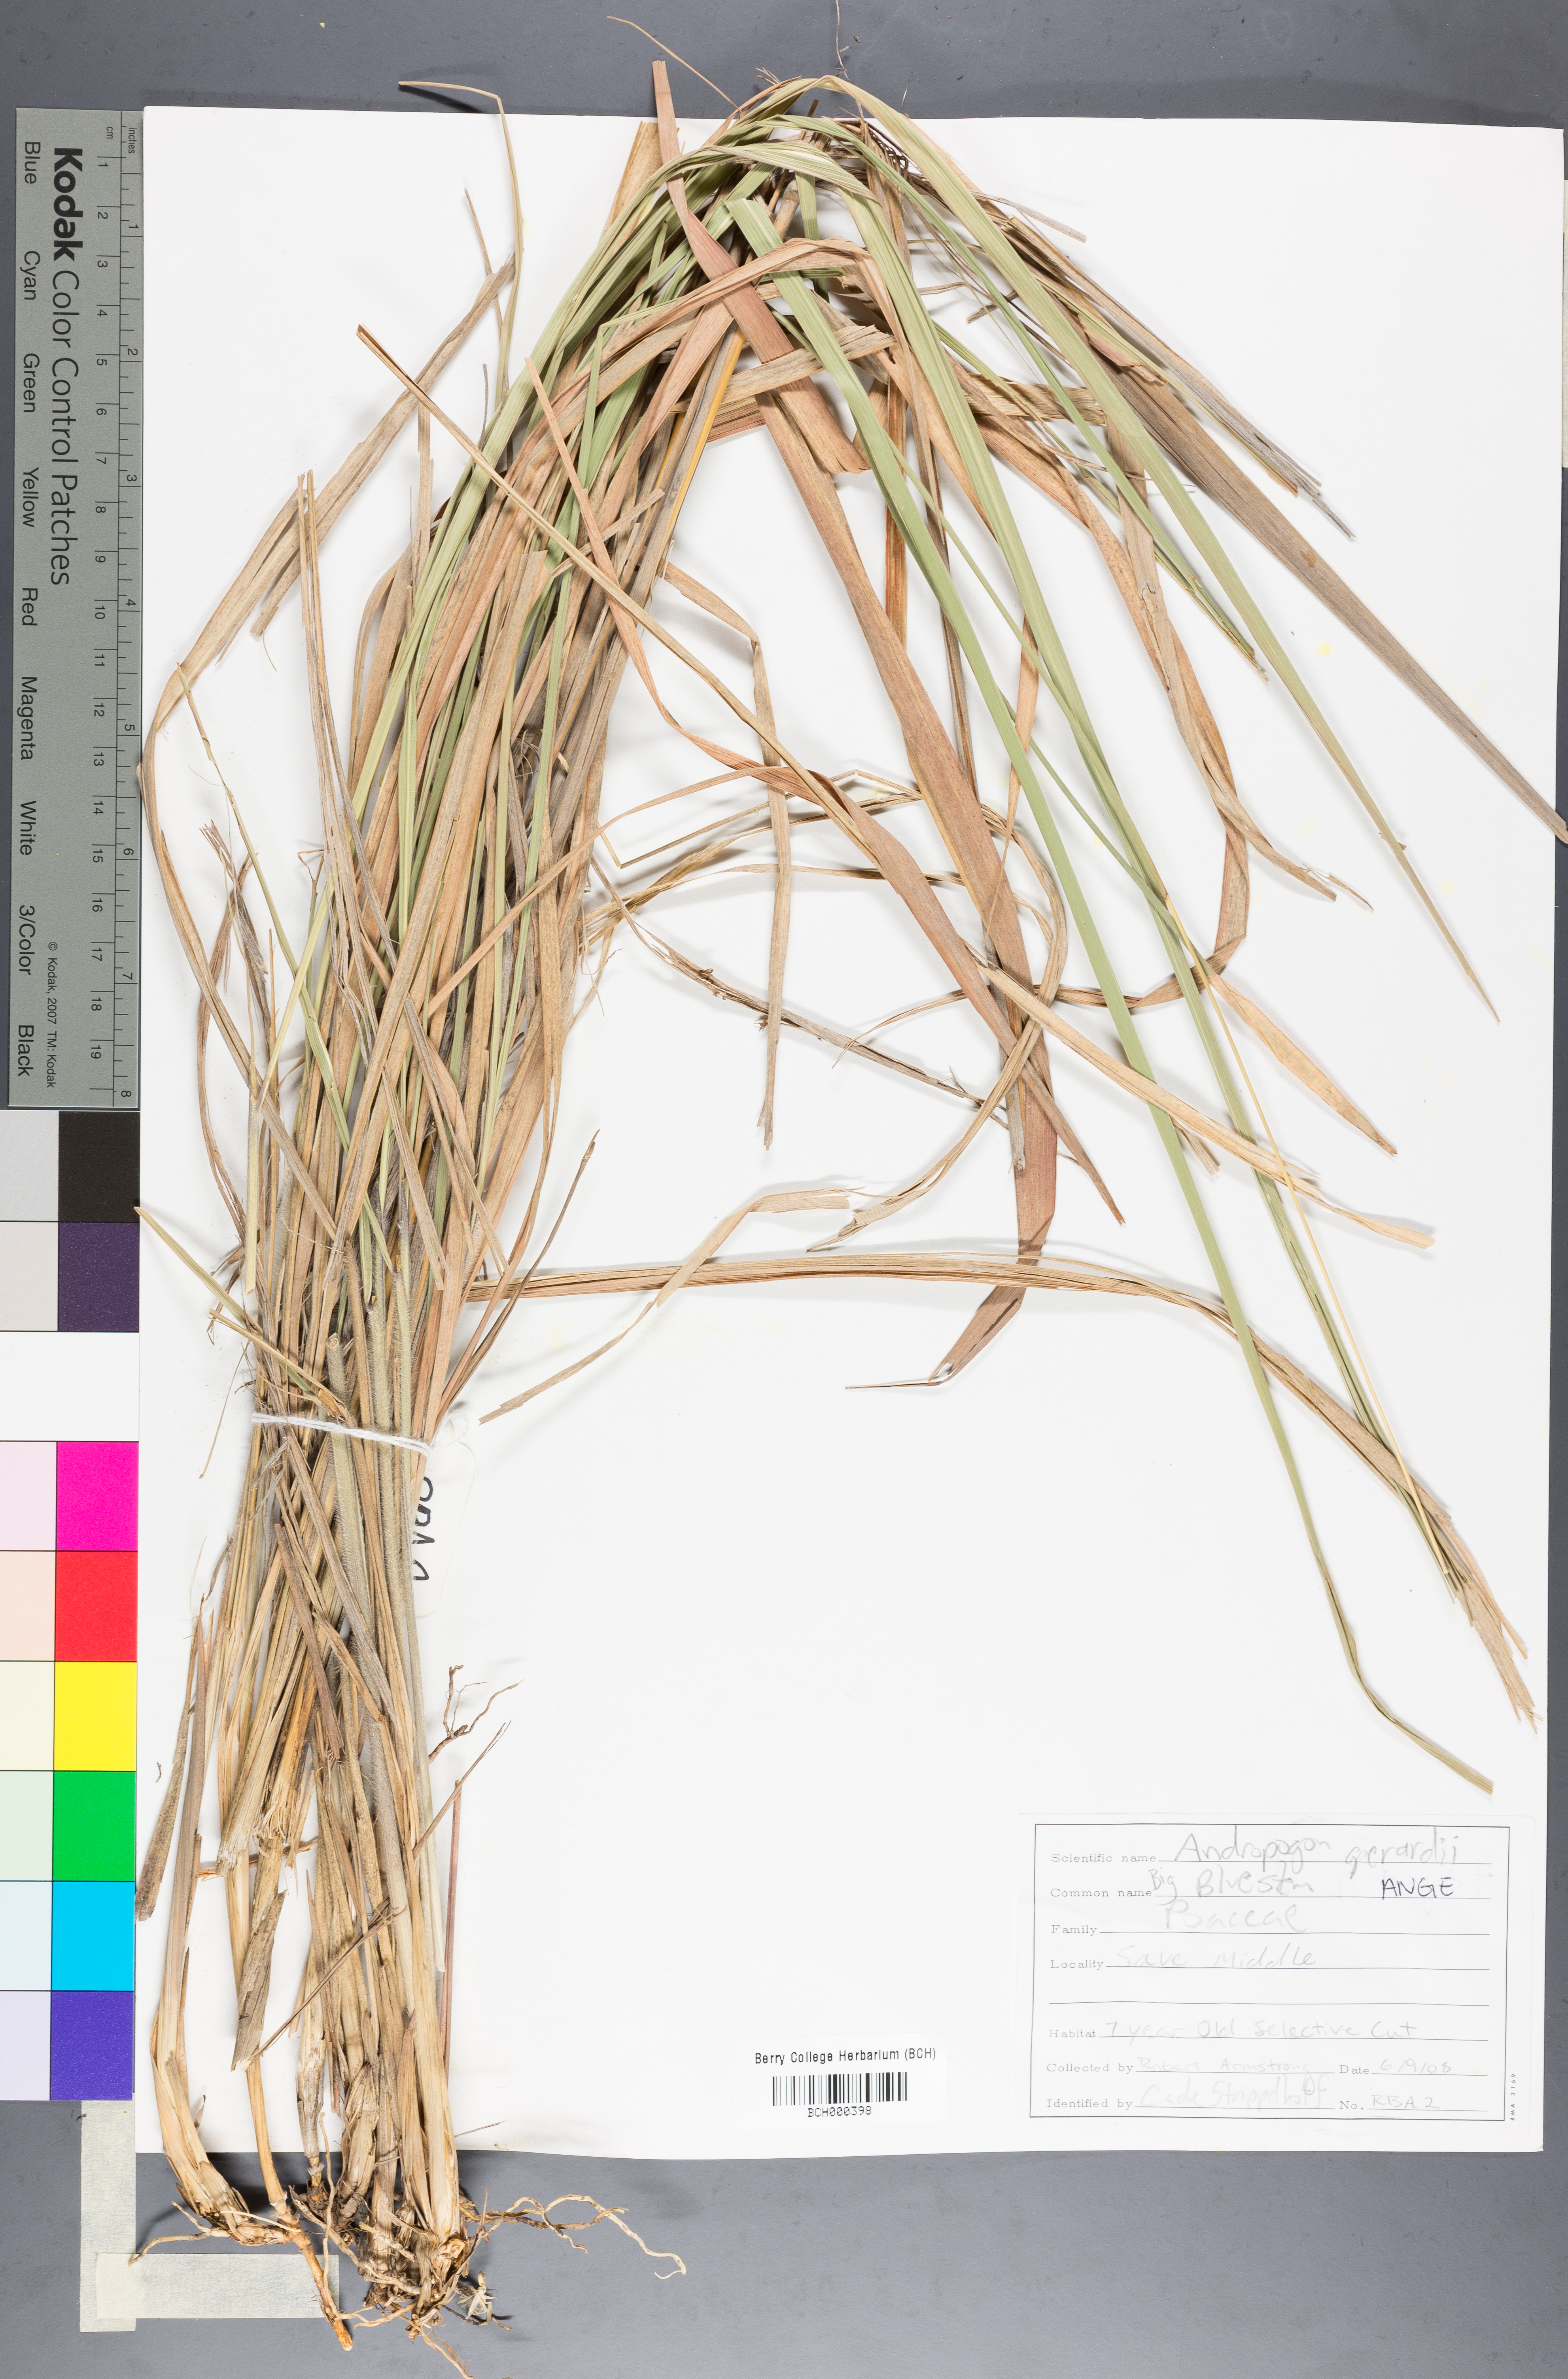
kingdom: Plantae
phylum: Tracheophyta
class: Liliopsida
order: Poales
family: Poaceae
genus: Andropogon
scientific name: Andropogon gerardi
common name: Big bluestem
